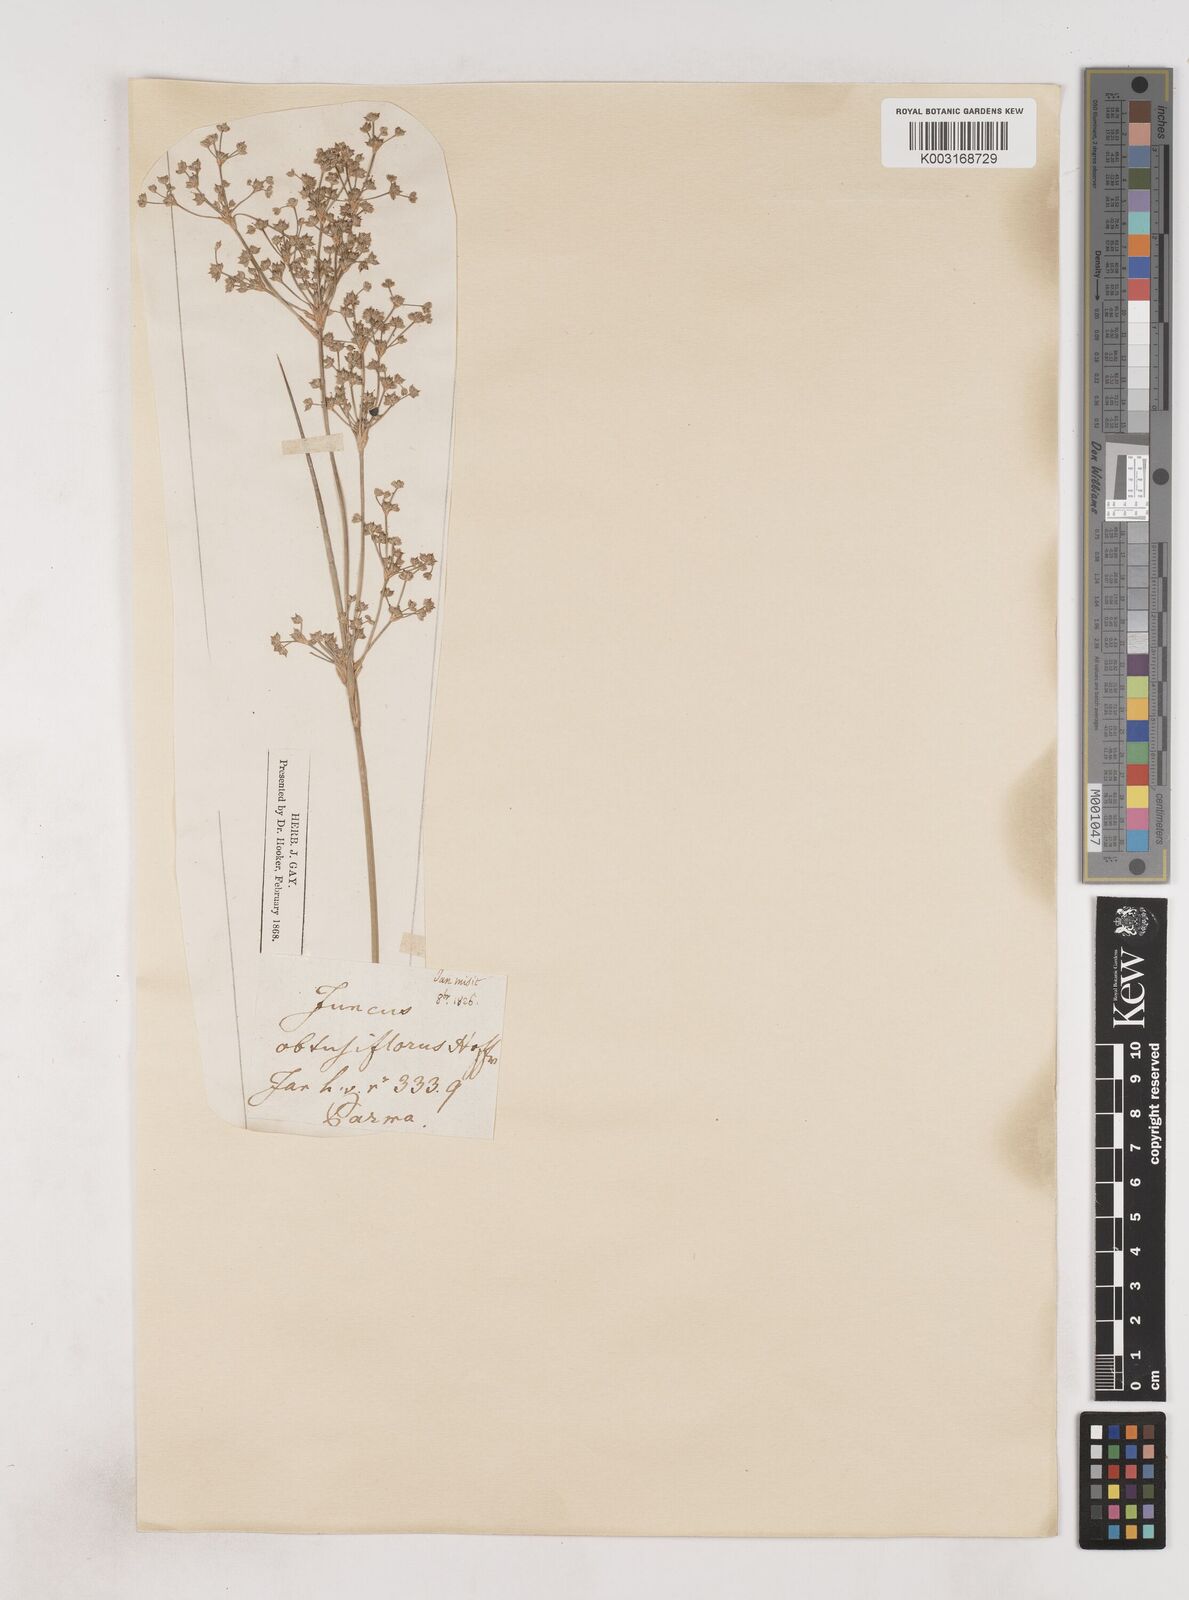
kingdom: Plantae
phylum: Tracheophyta
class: Liliopsida
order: Poales
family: Juncaceae
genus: Juncus
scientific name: Juncus subnodulosus
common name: Blunt-flowered rush
